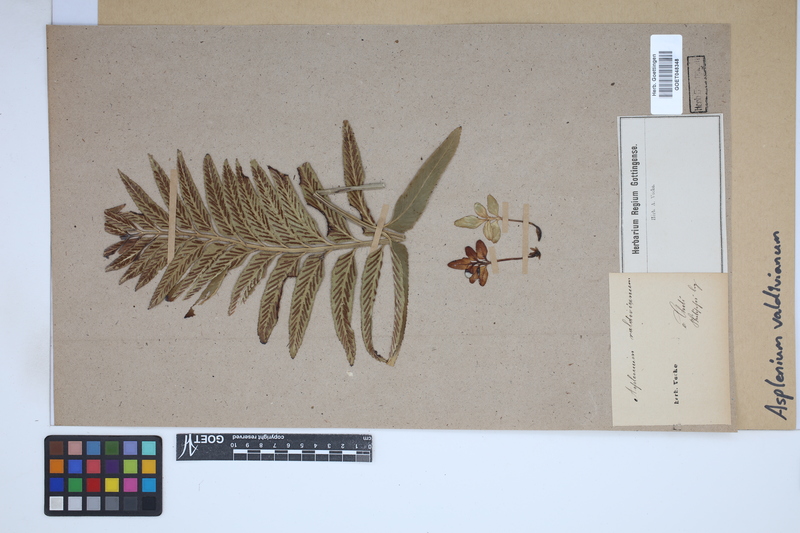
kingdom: Plantae
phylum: Tracheophyta
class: Polypodiopsida
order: Polypodiales
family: Aspleniaceae
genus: Asplenium
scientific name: Asplenium
